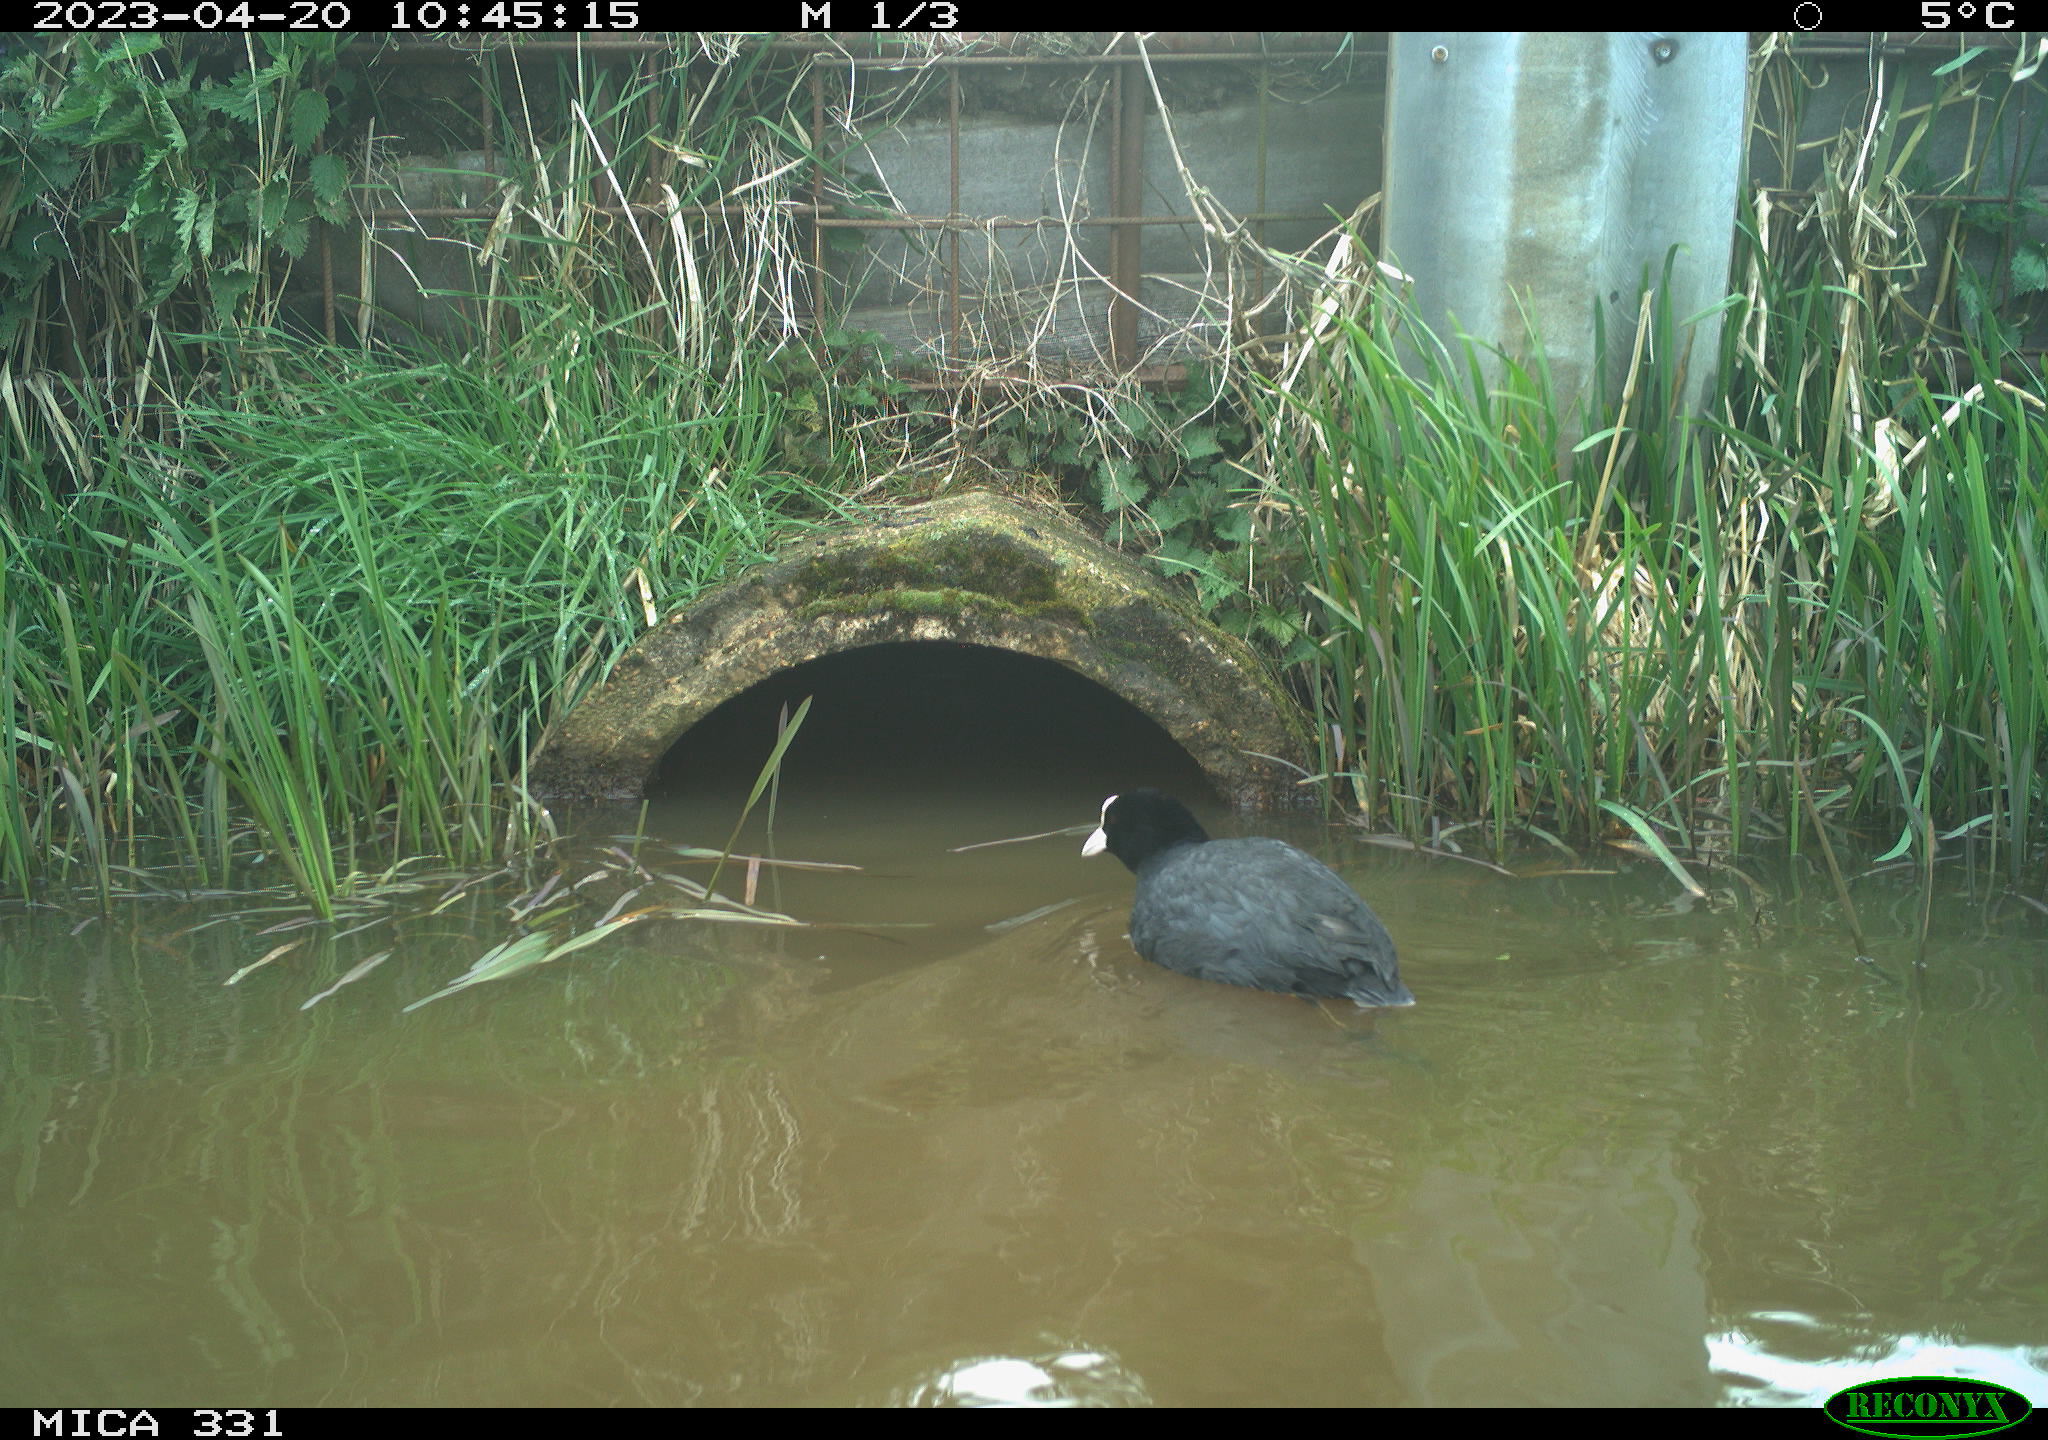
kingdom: Animalia
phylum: Chordata
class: Aves
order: Gruiformes
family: Rallidae
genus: Fulica
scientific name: Fulica atra
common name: Eurasian coot
